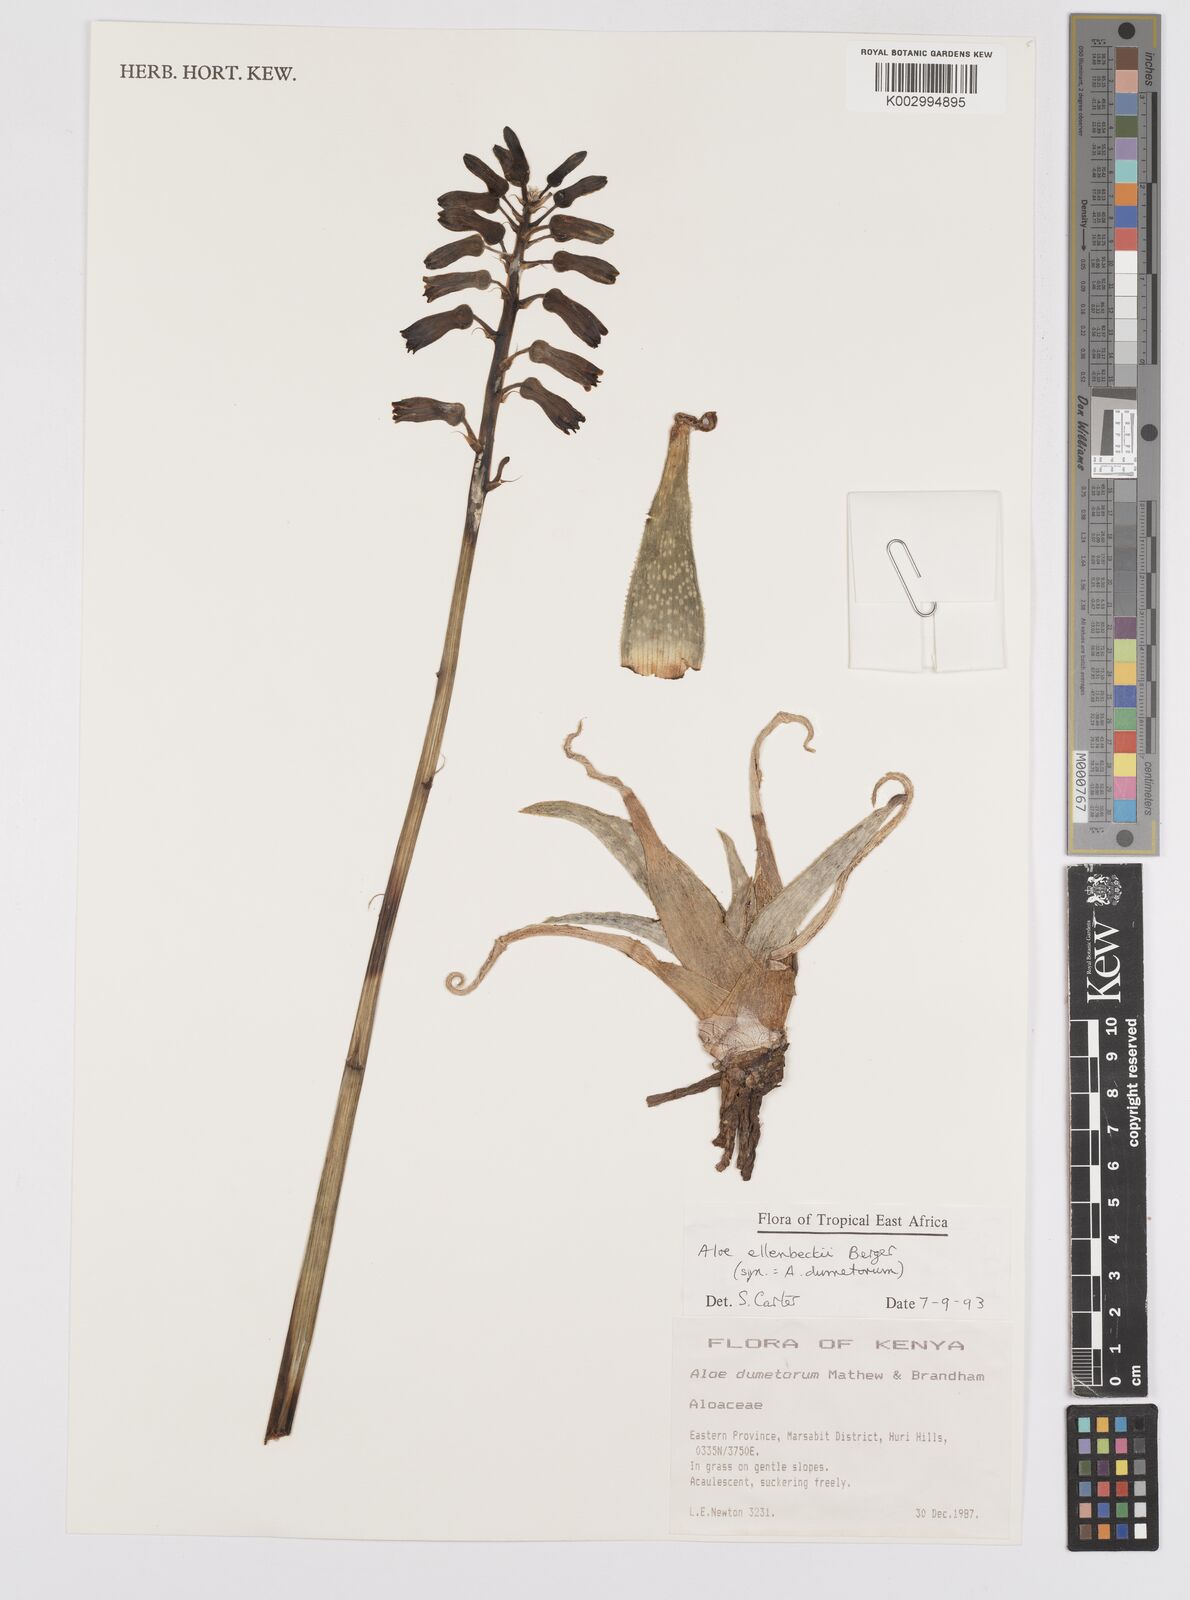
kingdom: Plantae
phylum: Tracheophyta
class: Liliopsida
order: Asparagales
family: Asphodelaceae
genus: Aloe
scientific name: Aloe ellenbeckii
